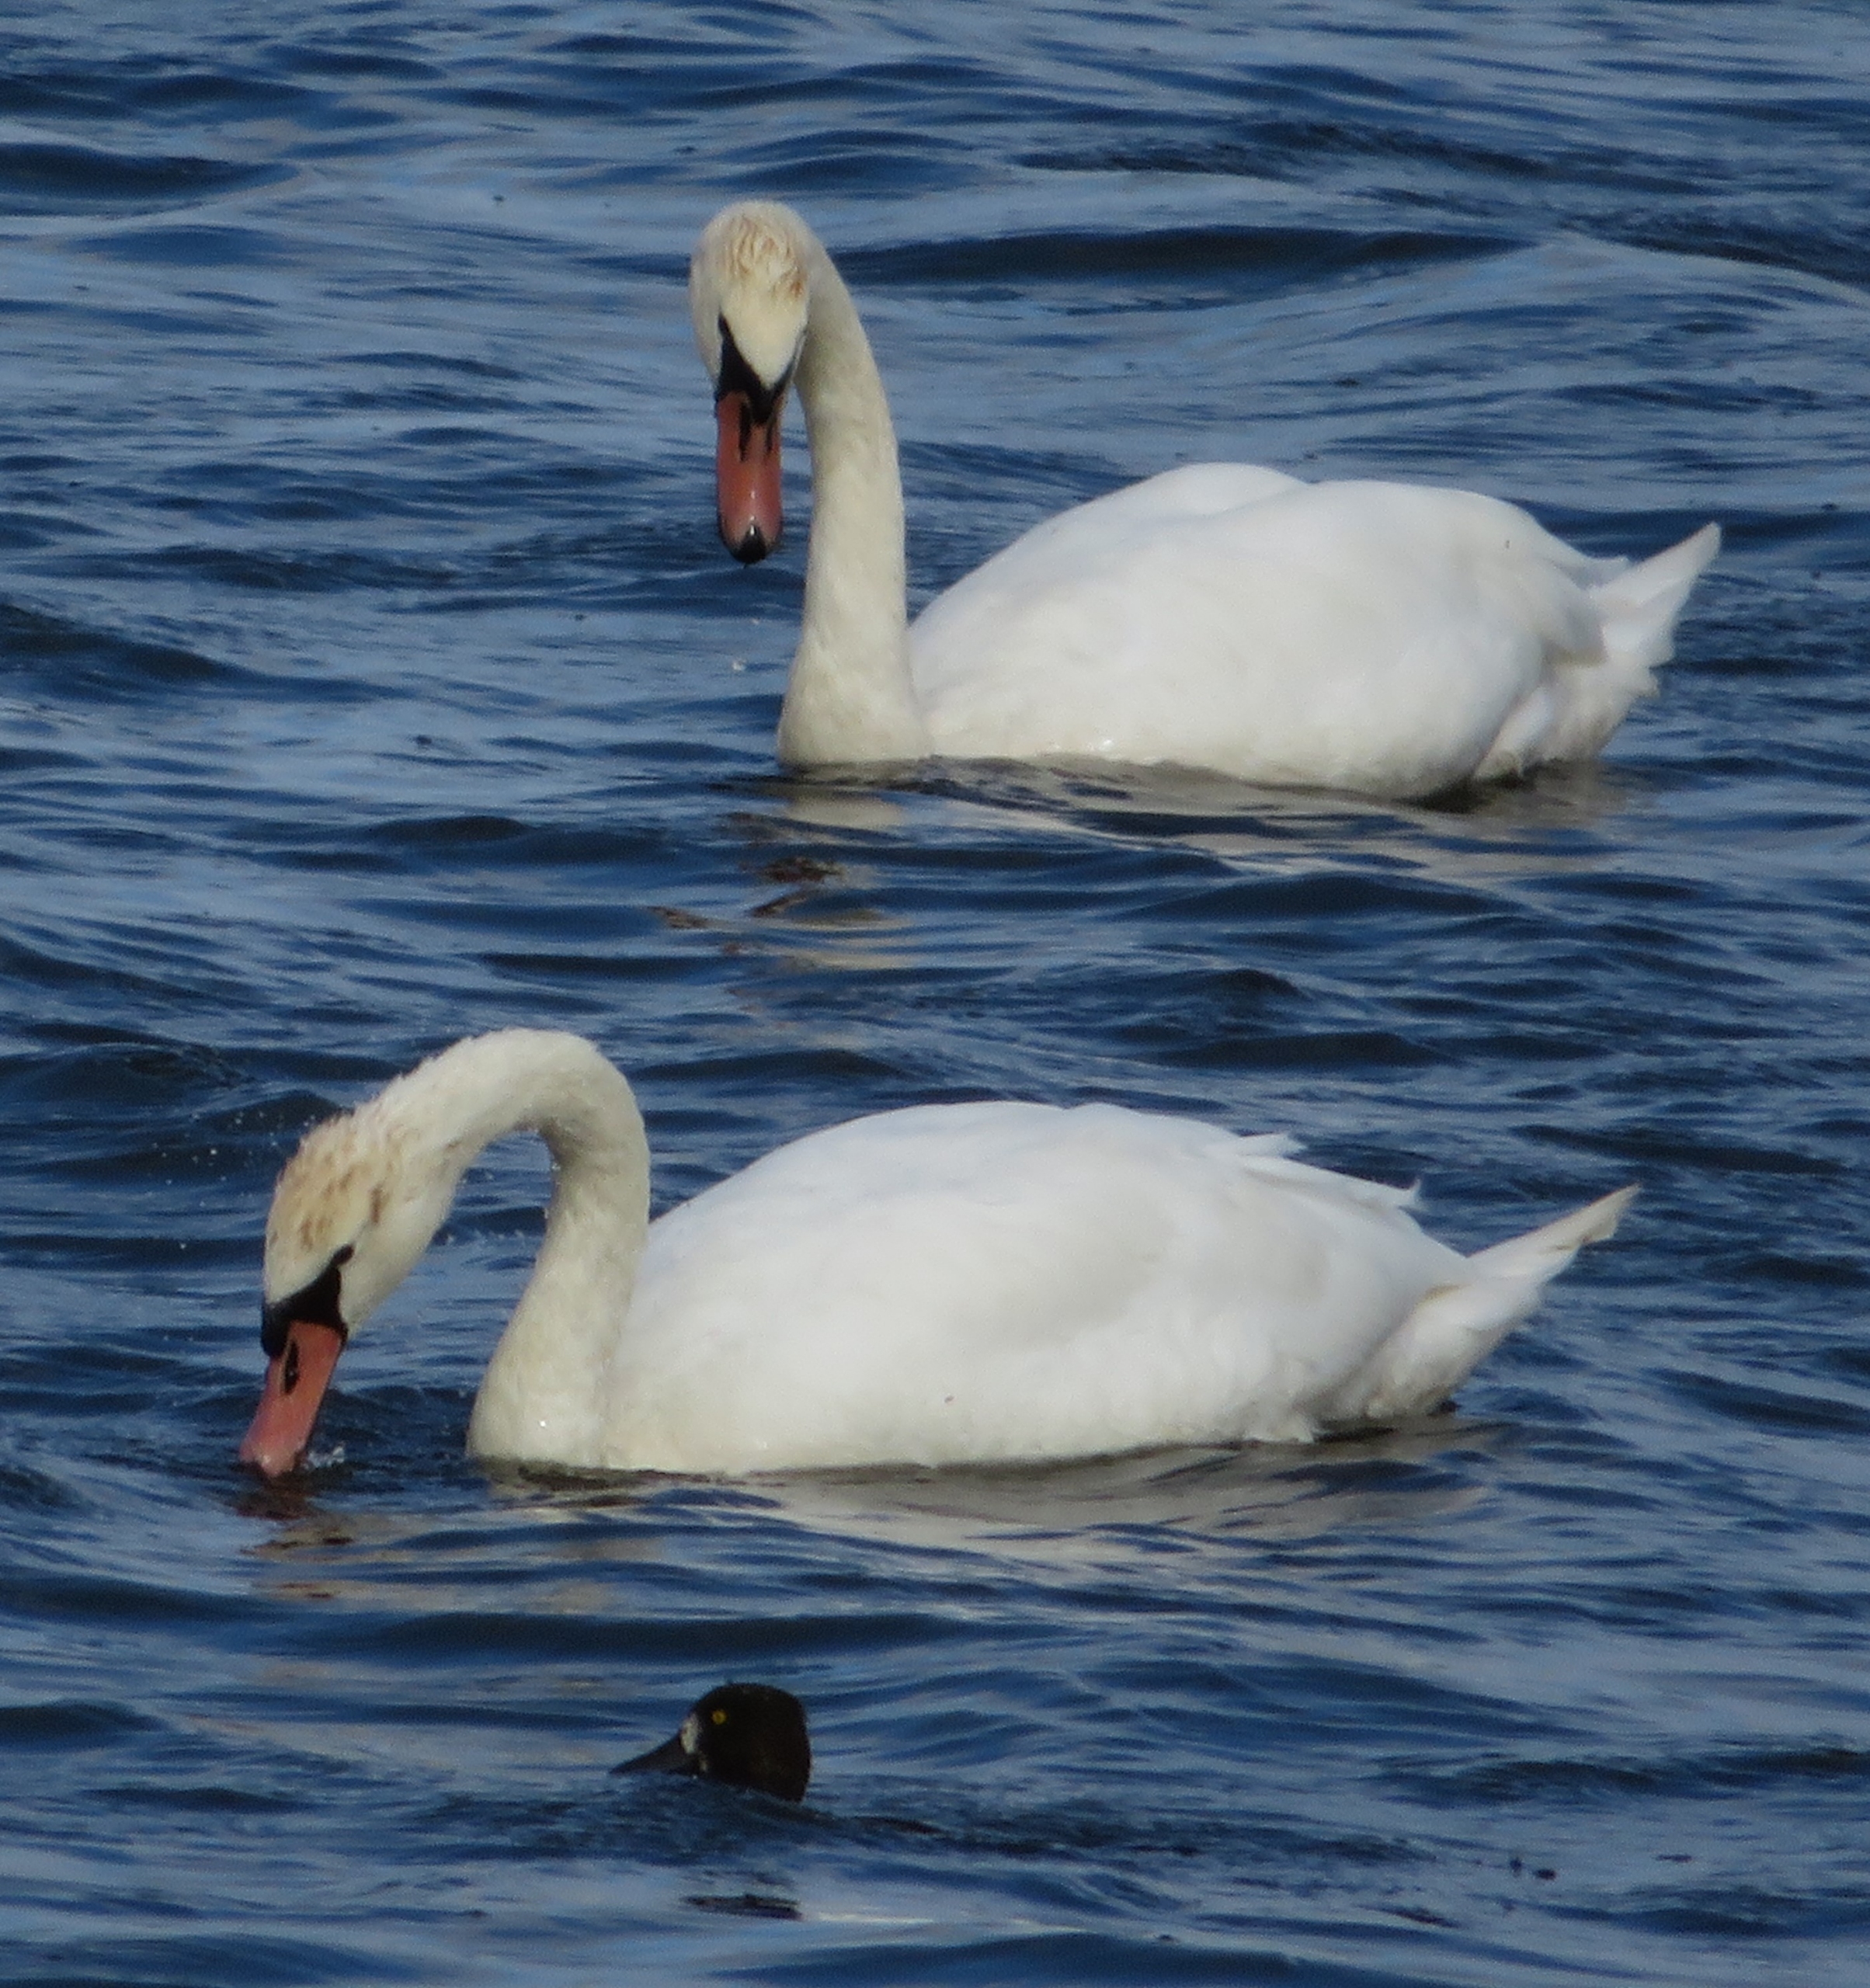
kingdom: Animalia
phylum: Chordata
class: Aves
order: Anseriformes
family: Anatidae
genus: Cygnus
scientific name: Cygnus olor
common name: Knopsvane
